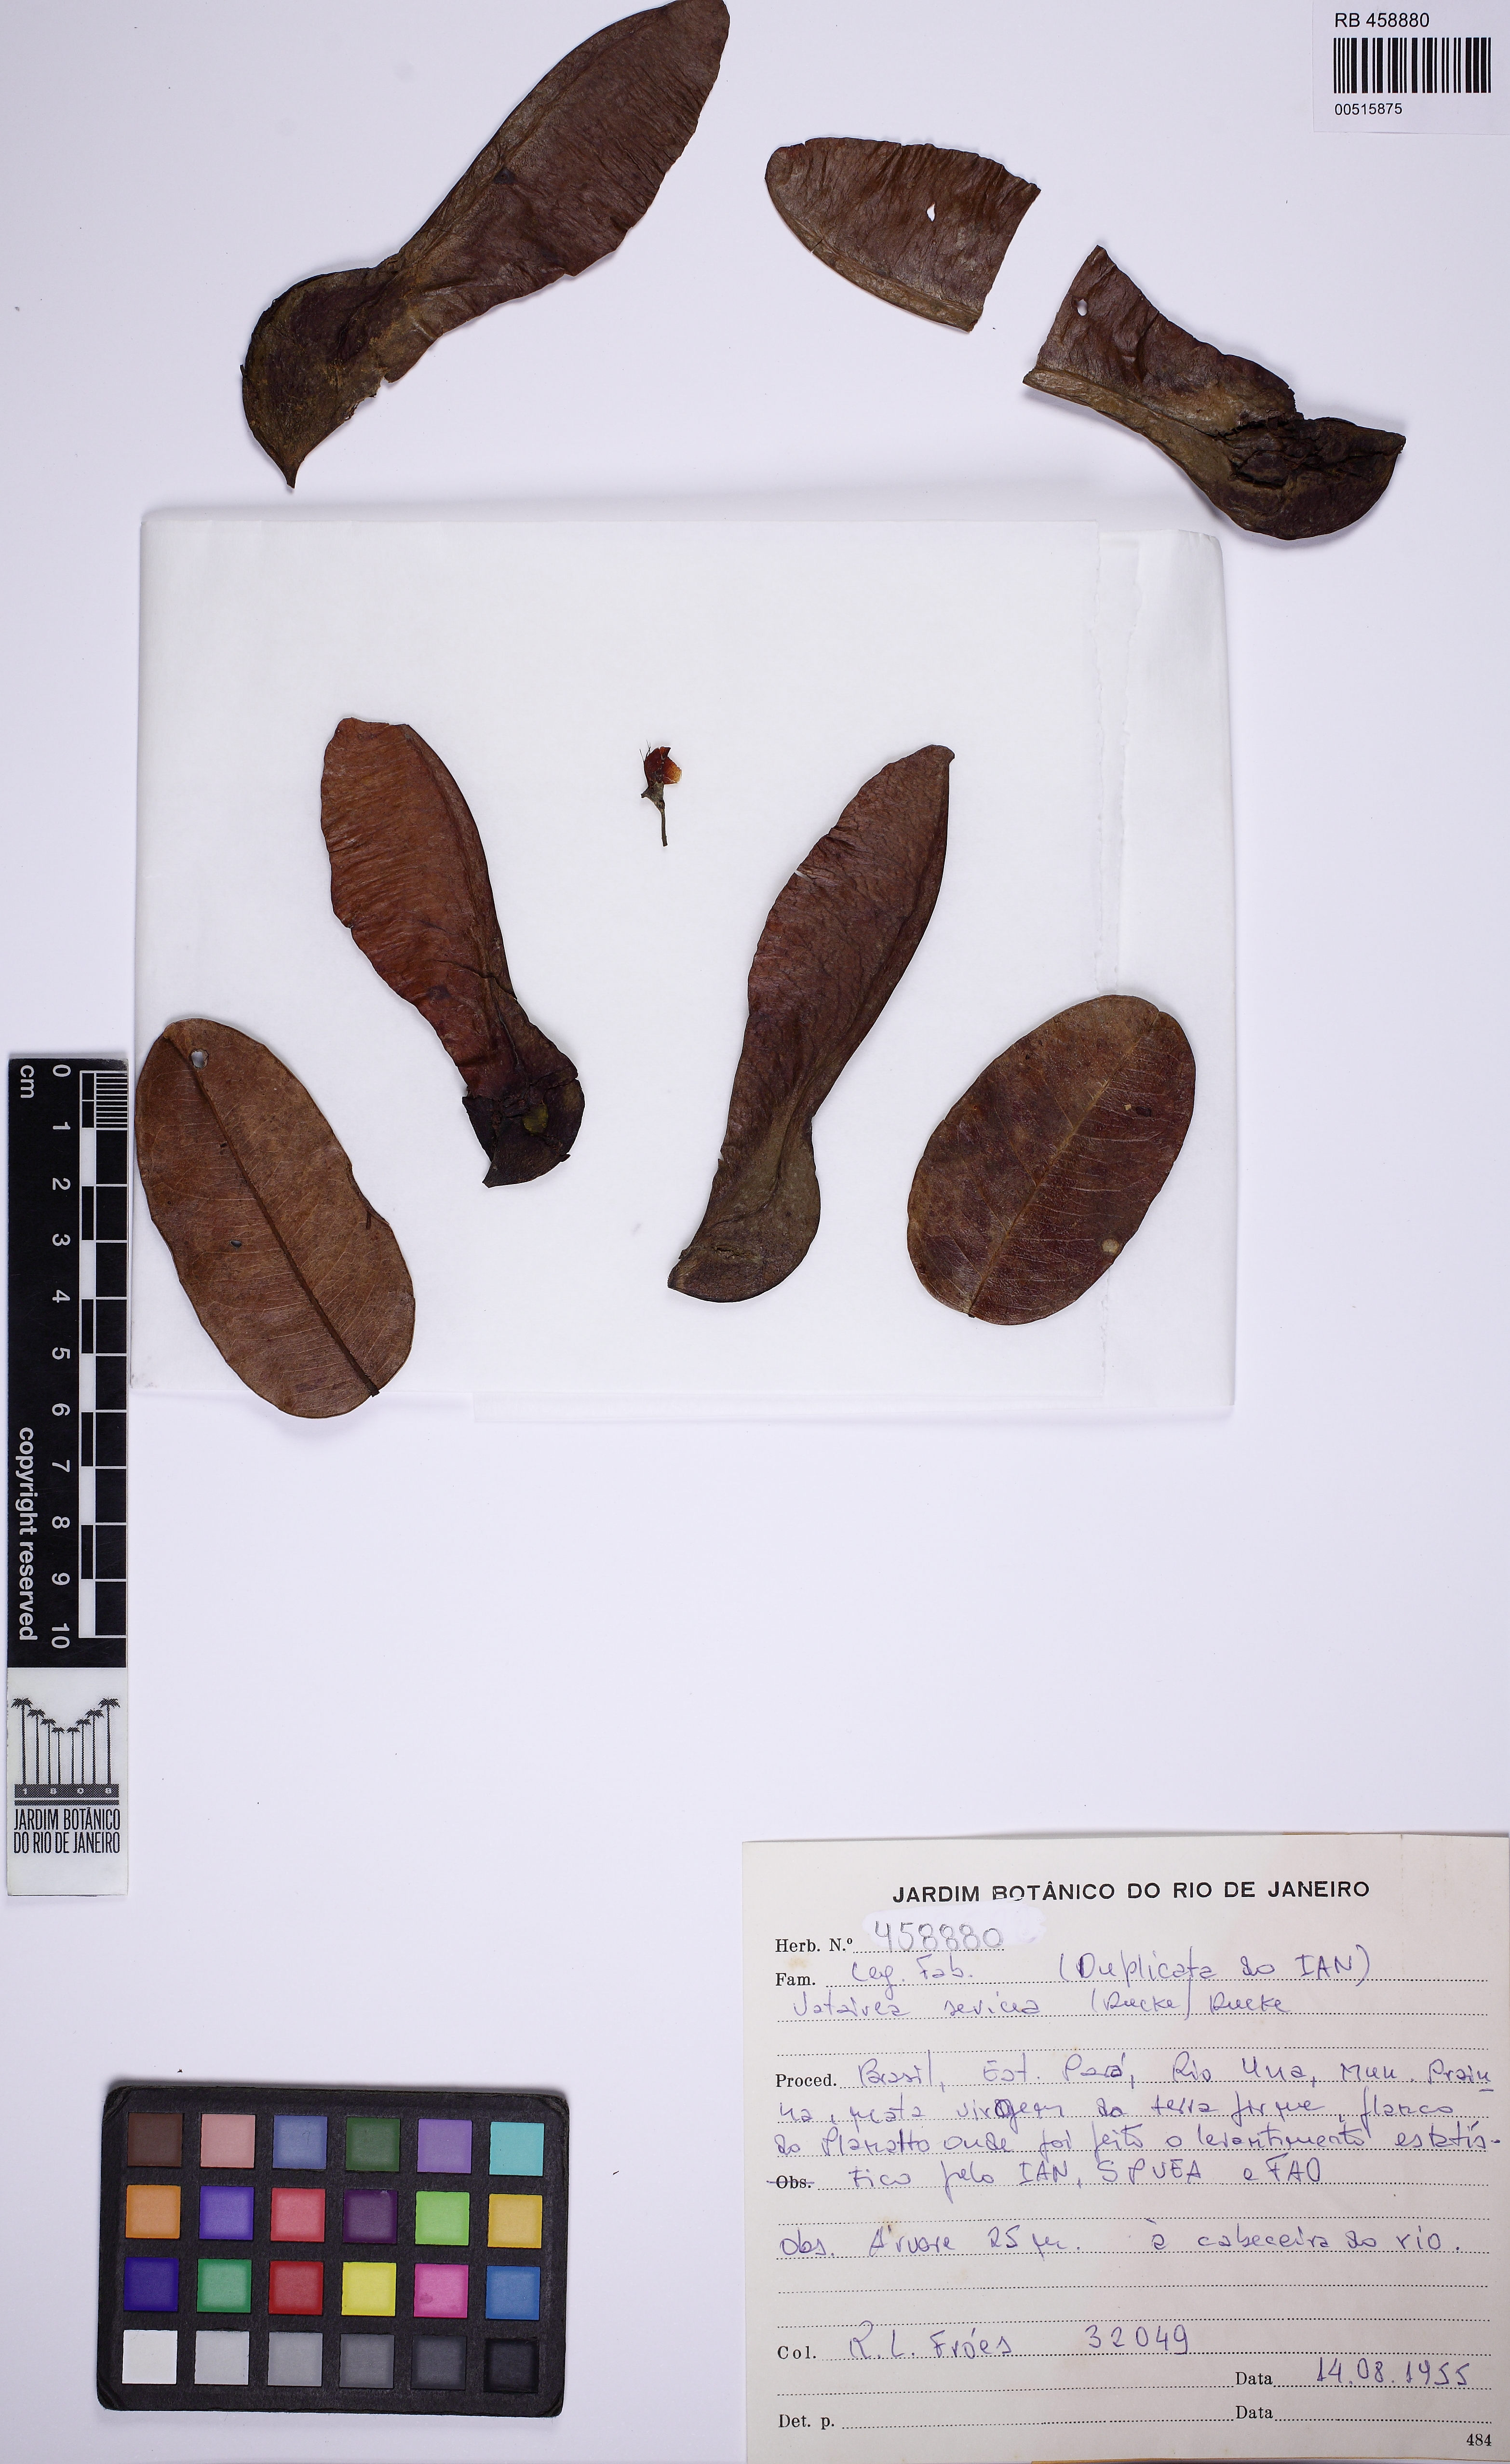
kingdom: Plantae
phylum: Tracheophyta
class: Magnoliopsida
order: Fabales
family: Fabaceae
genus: Vatairea
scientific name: Vatairea sericea
